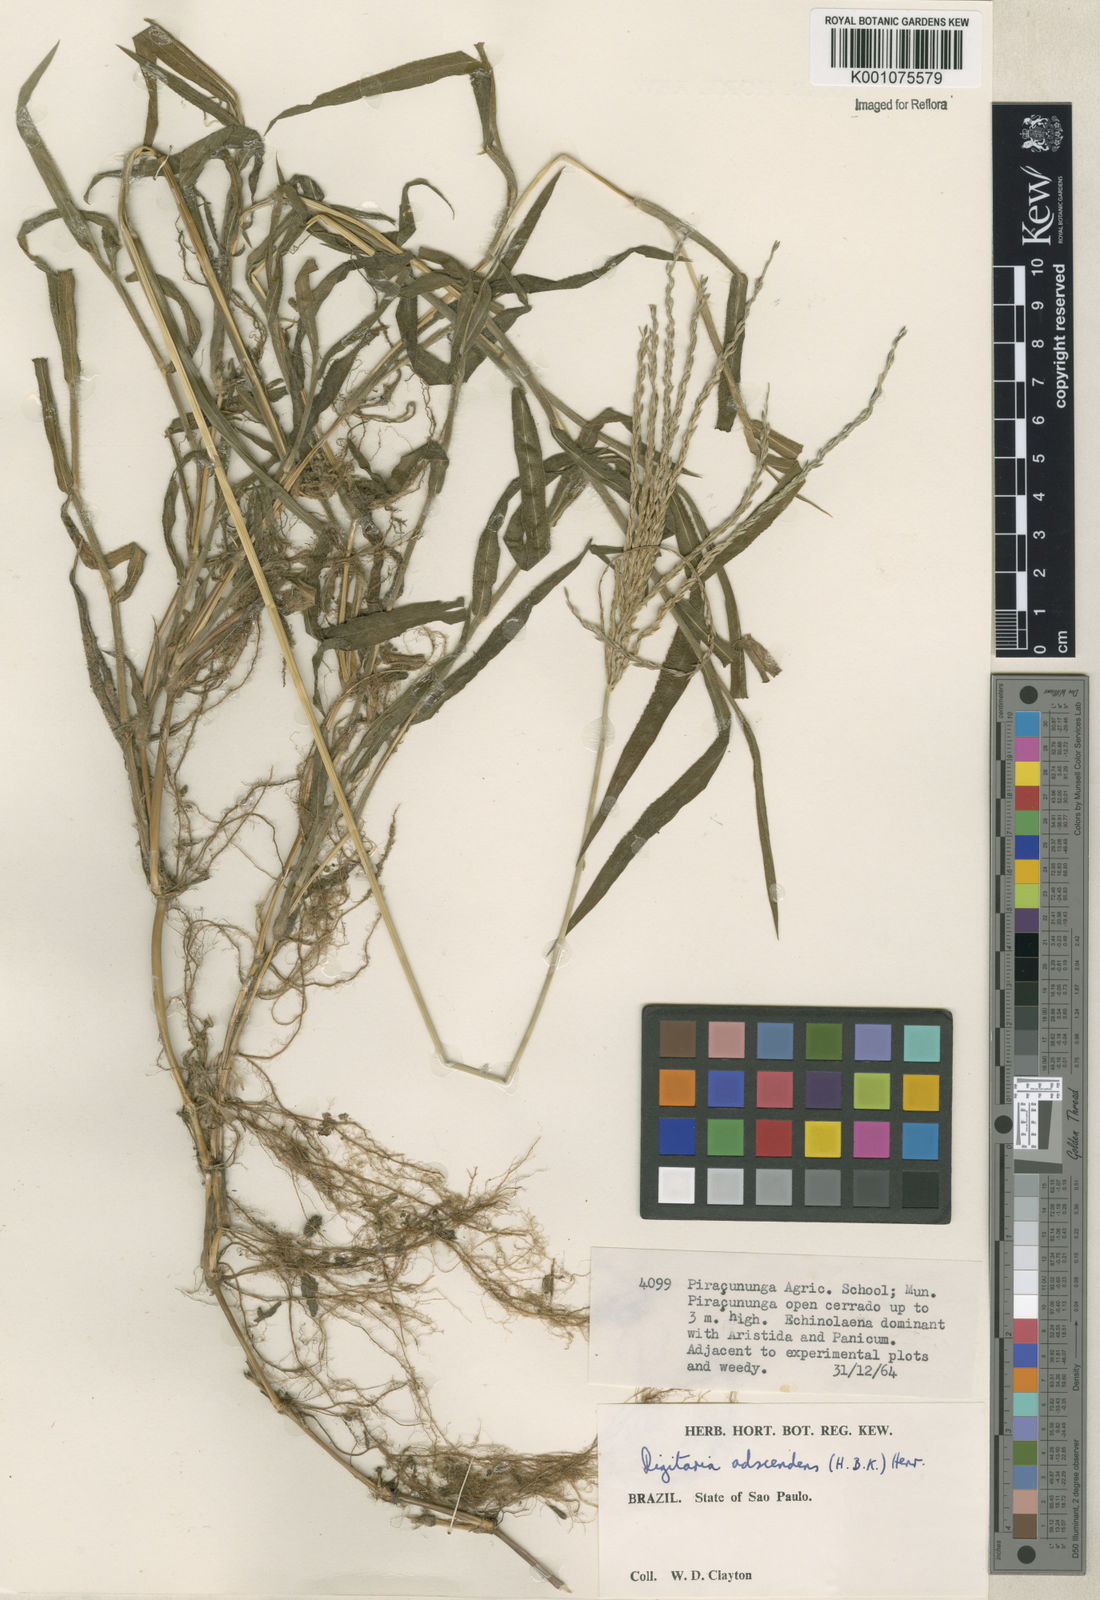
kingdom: Plantae
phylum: Tracheophyta
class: Liliopsida
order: Poales
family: Poaceae
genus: Digitaria
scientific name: Digitaria ciliaris
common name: Tropical finger-grass
